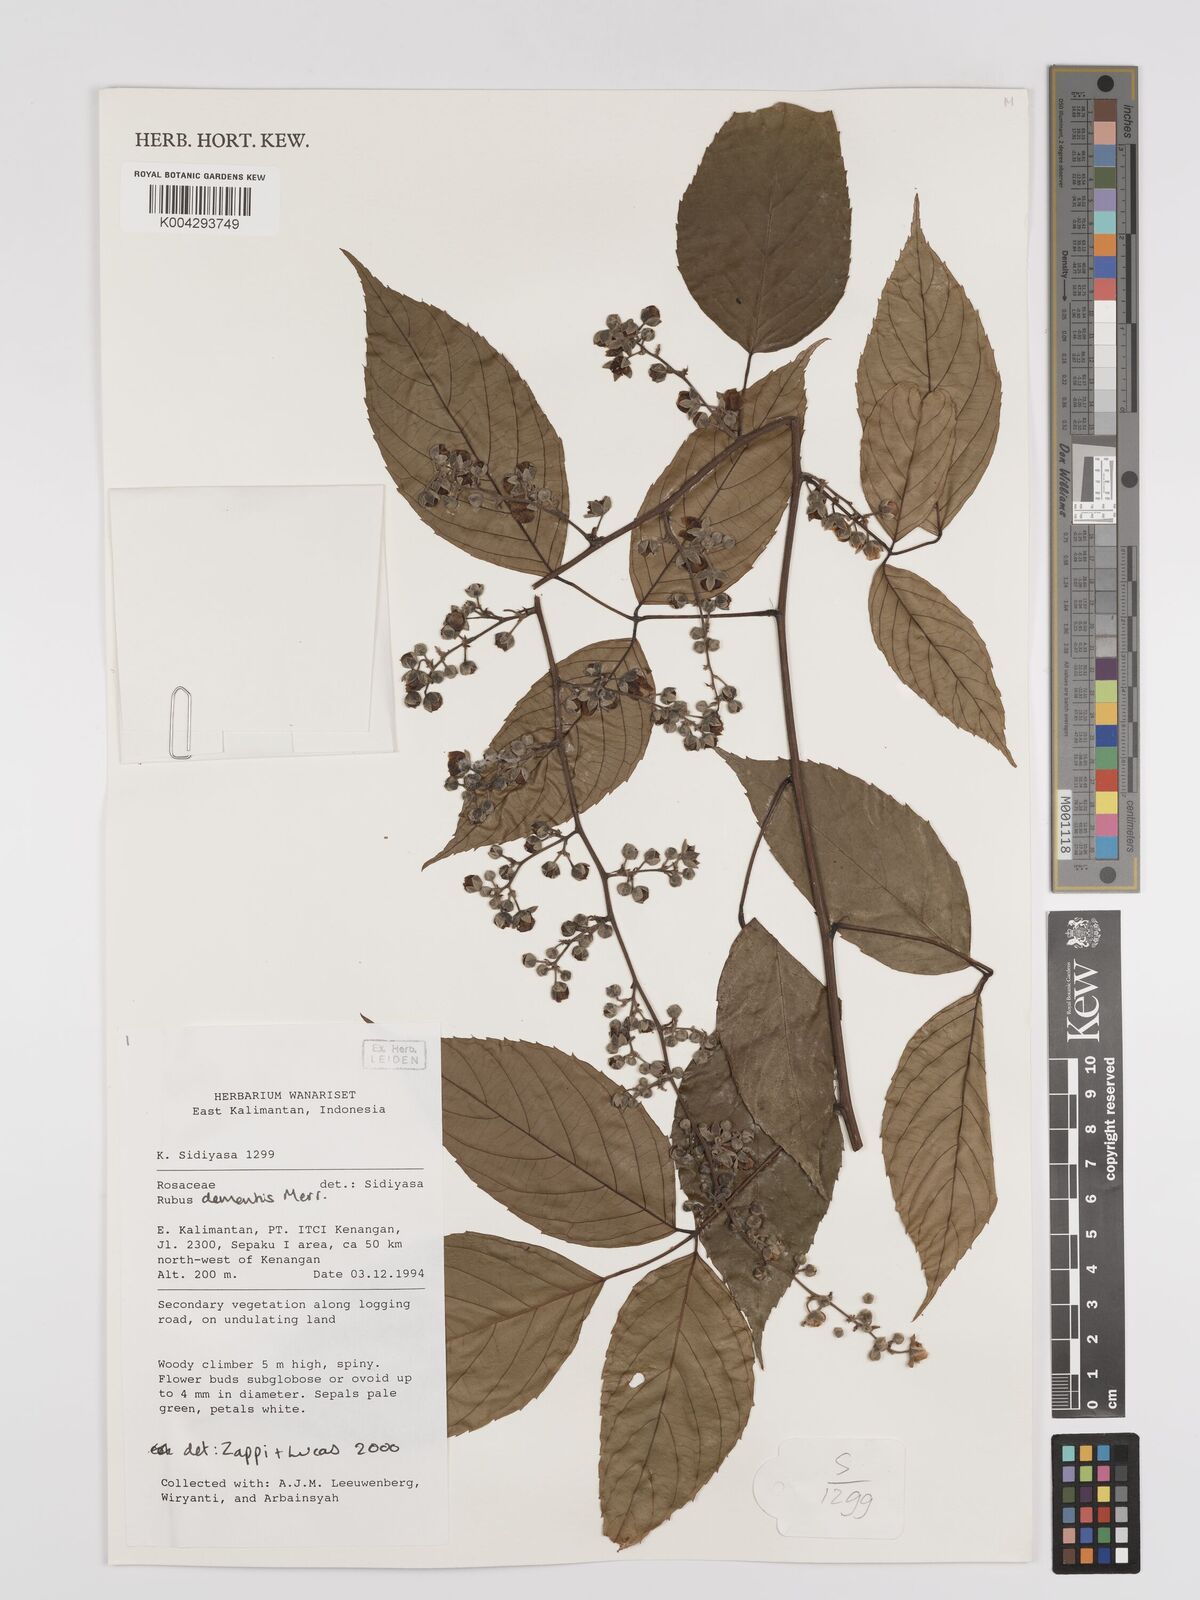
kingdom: Plantae
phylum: Tracheophyta
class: Magnoliopsida
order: Rosales
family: Rosaceae
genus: Rubus
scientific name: Rubus clementis
